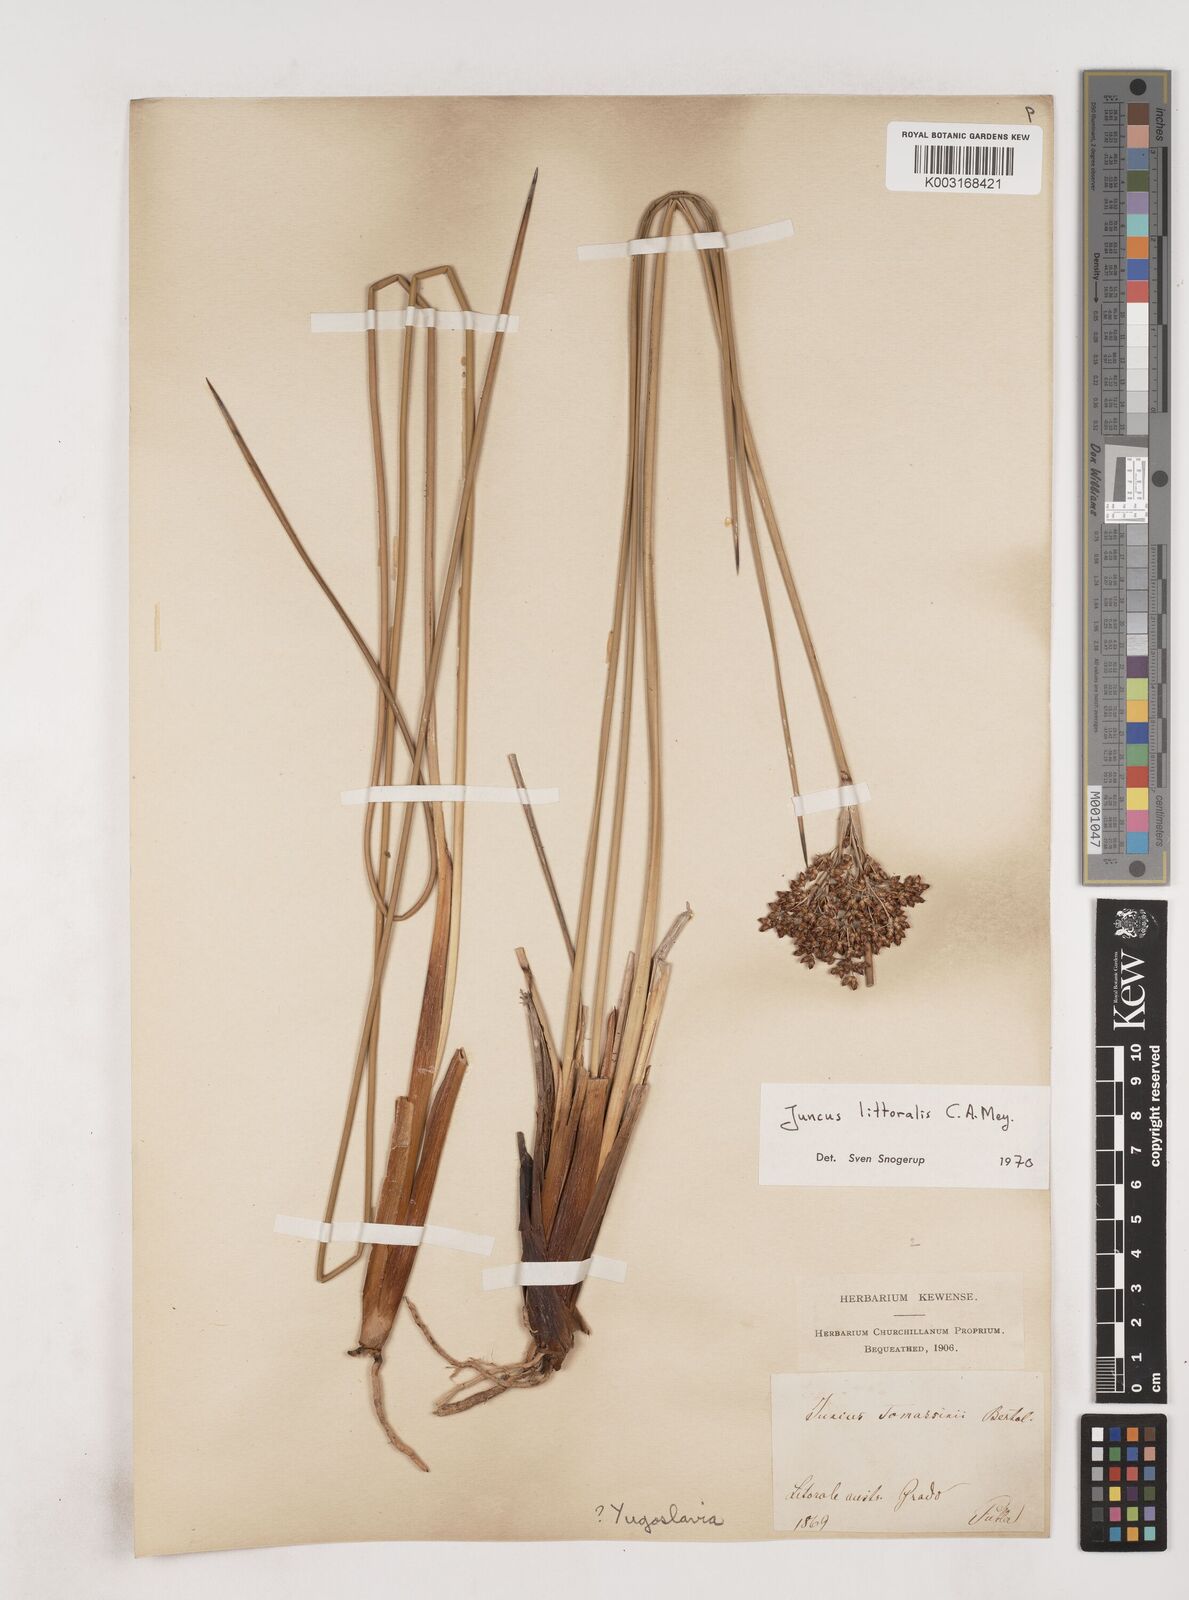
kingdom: Plantae
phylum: Tracheophyta
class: Liliopsida
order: Poales
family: Juncaceae
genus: Juncus
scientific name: Juncus
